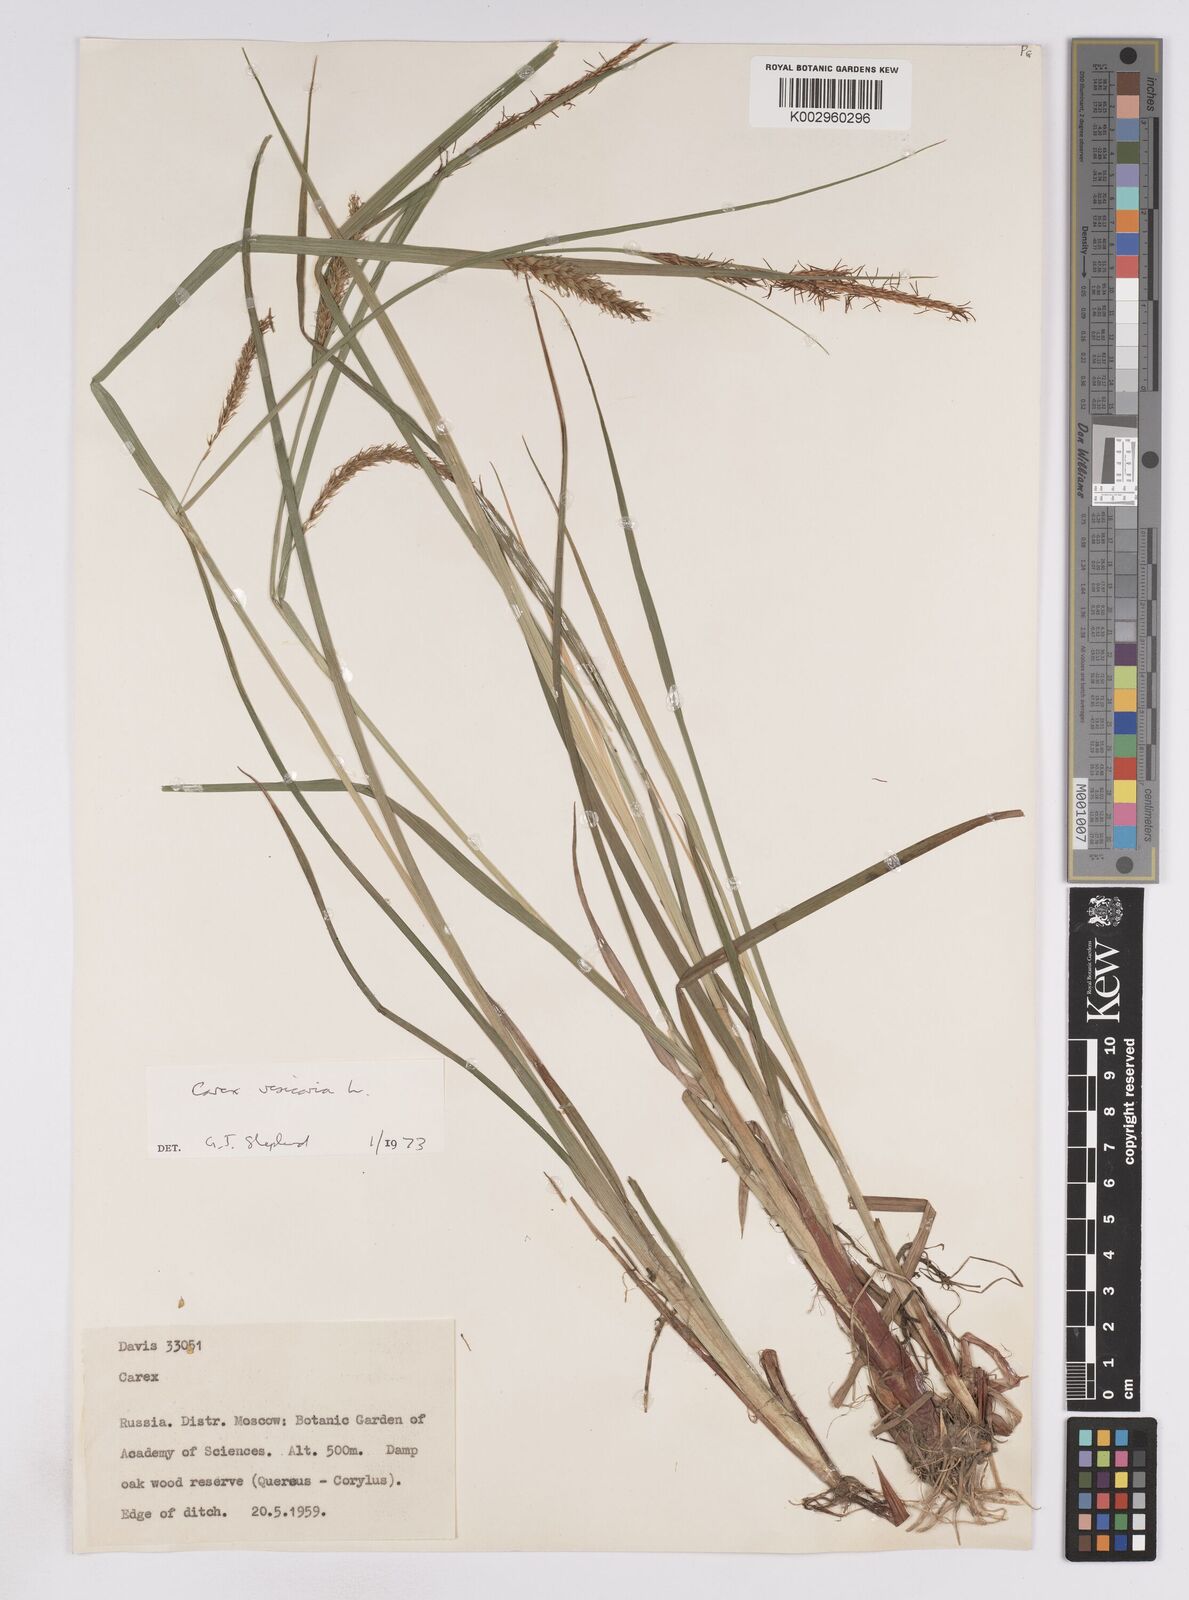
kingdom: Plantae
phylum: Tracheophyta
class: Liliopsida
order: Poales
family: Cyperaceae
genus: Carex
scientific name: Carex vesicaria
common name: Bladder-sedge
